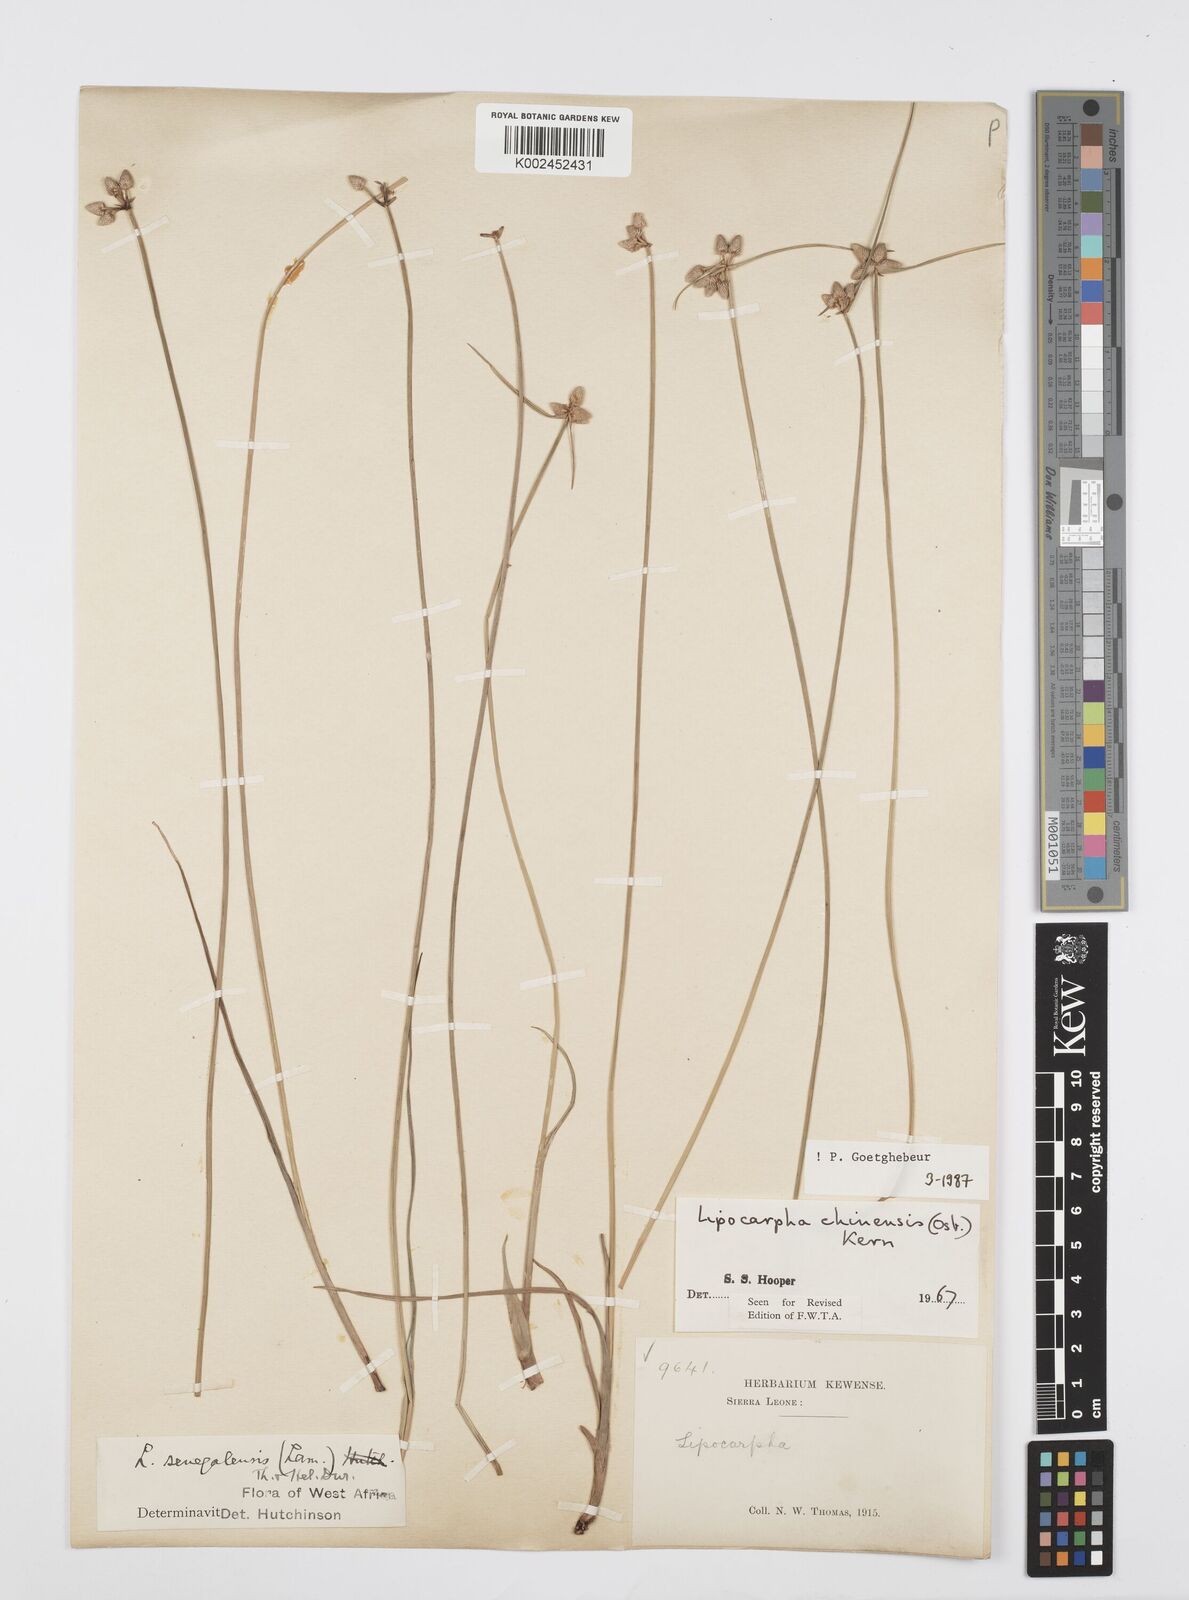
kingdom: Plantae
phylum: Tracheophyta
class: Liliopsida
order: Poales
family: Cyperaceae
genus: Cyperus
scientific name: Cyperus albescens
